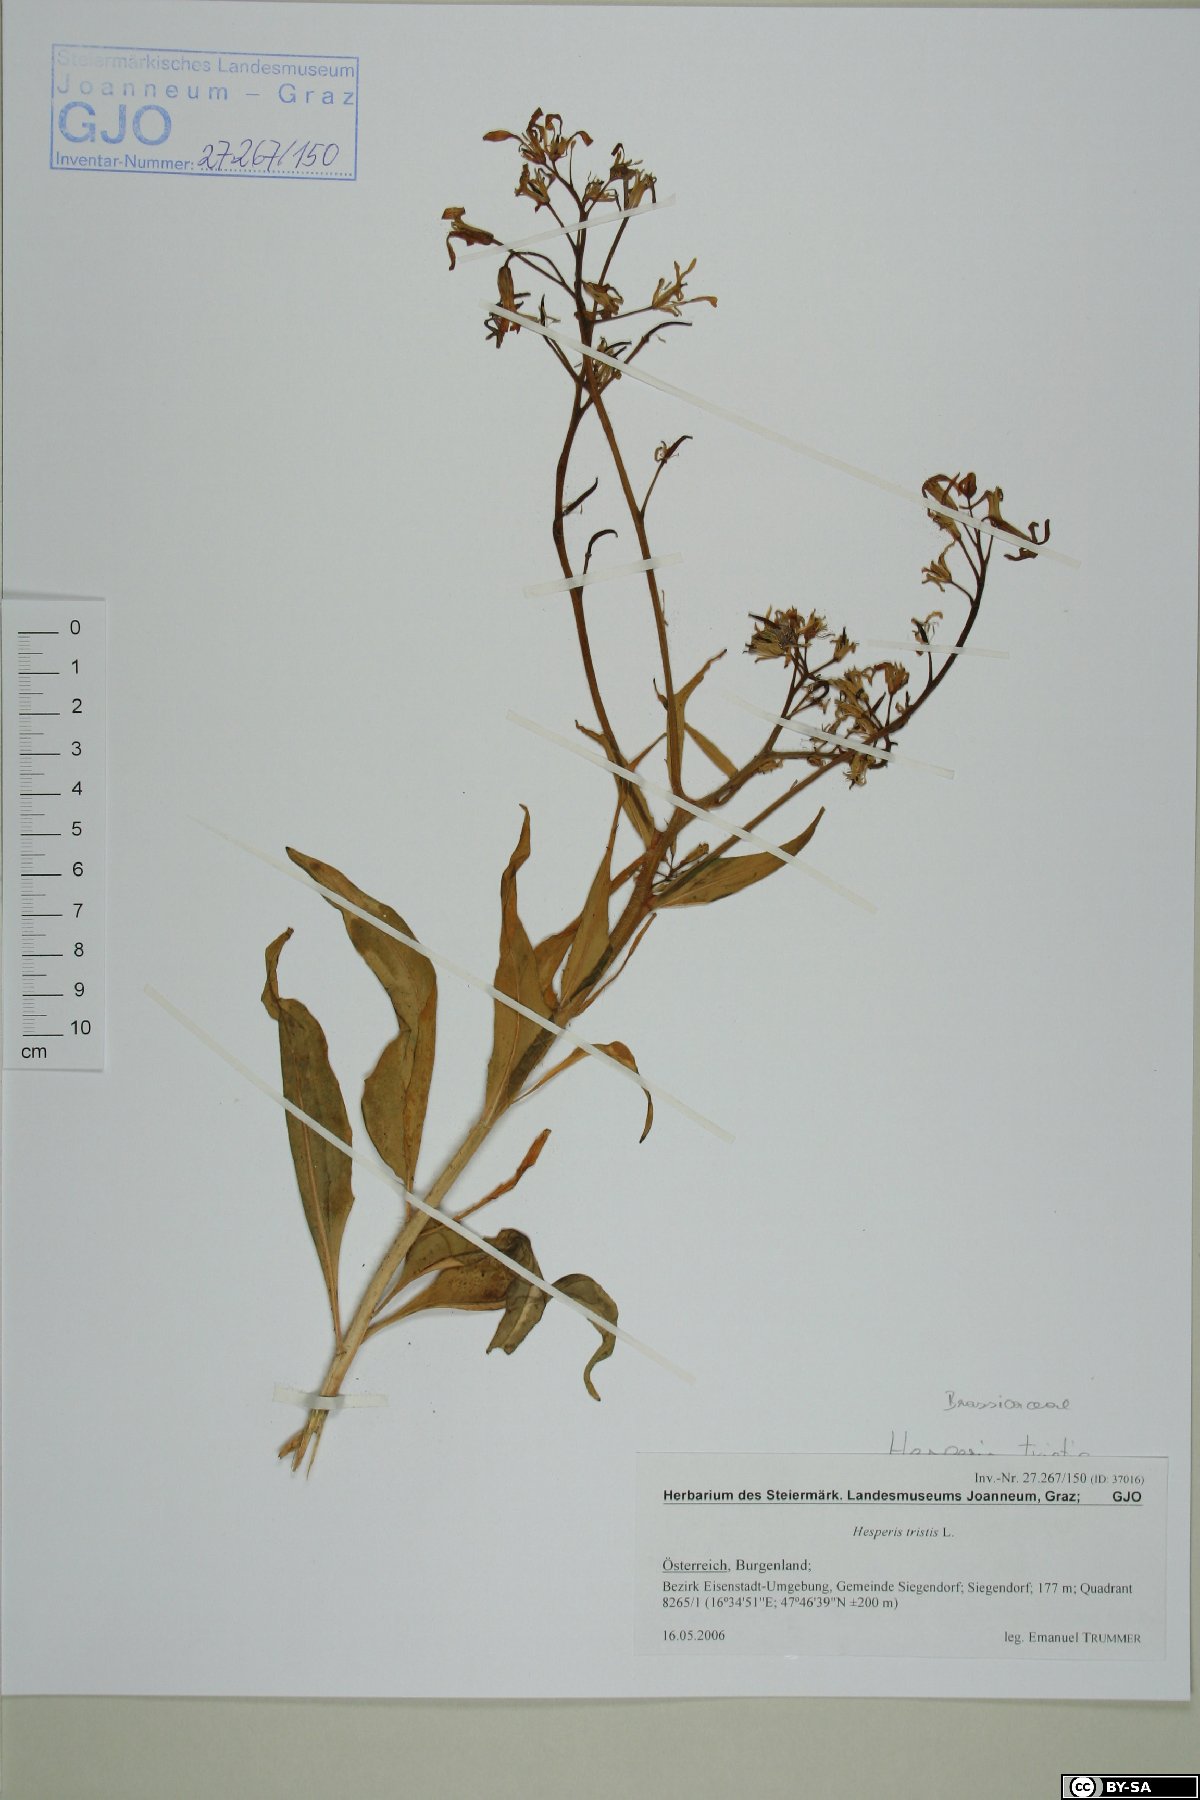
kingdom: Plantae
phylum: Tracheophyta
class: Magnoliopsida
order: Brassicales
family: Brassicaceae
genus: Hesperis
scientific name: Hesperis tristis
